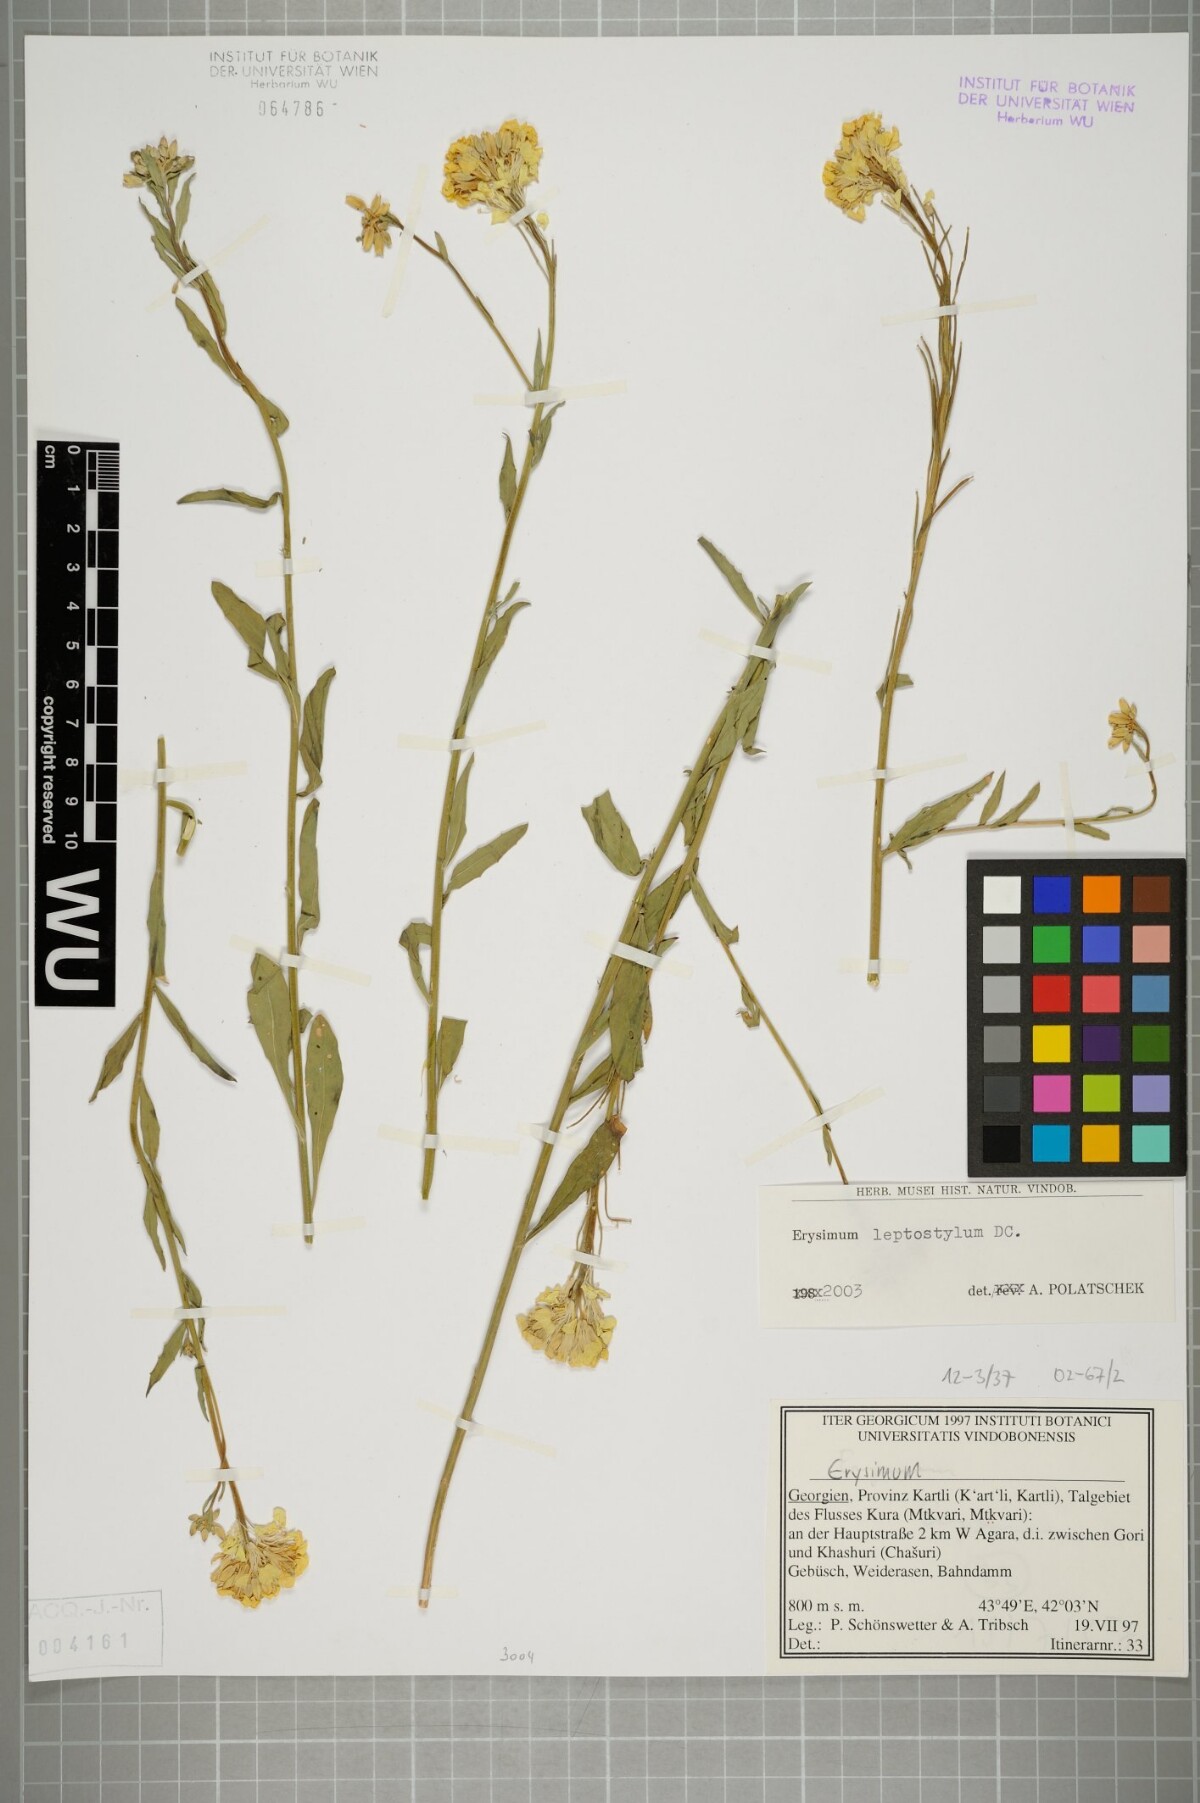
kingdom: Plantae
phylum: Tracheophyta
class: Magnoliopsida
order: Brassicales
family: Brassicaceae
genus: Erysimum
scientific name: Erysimum leptostylum
